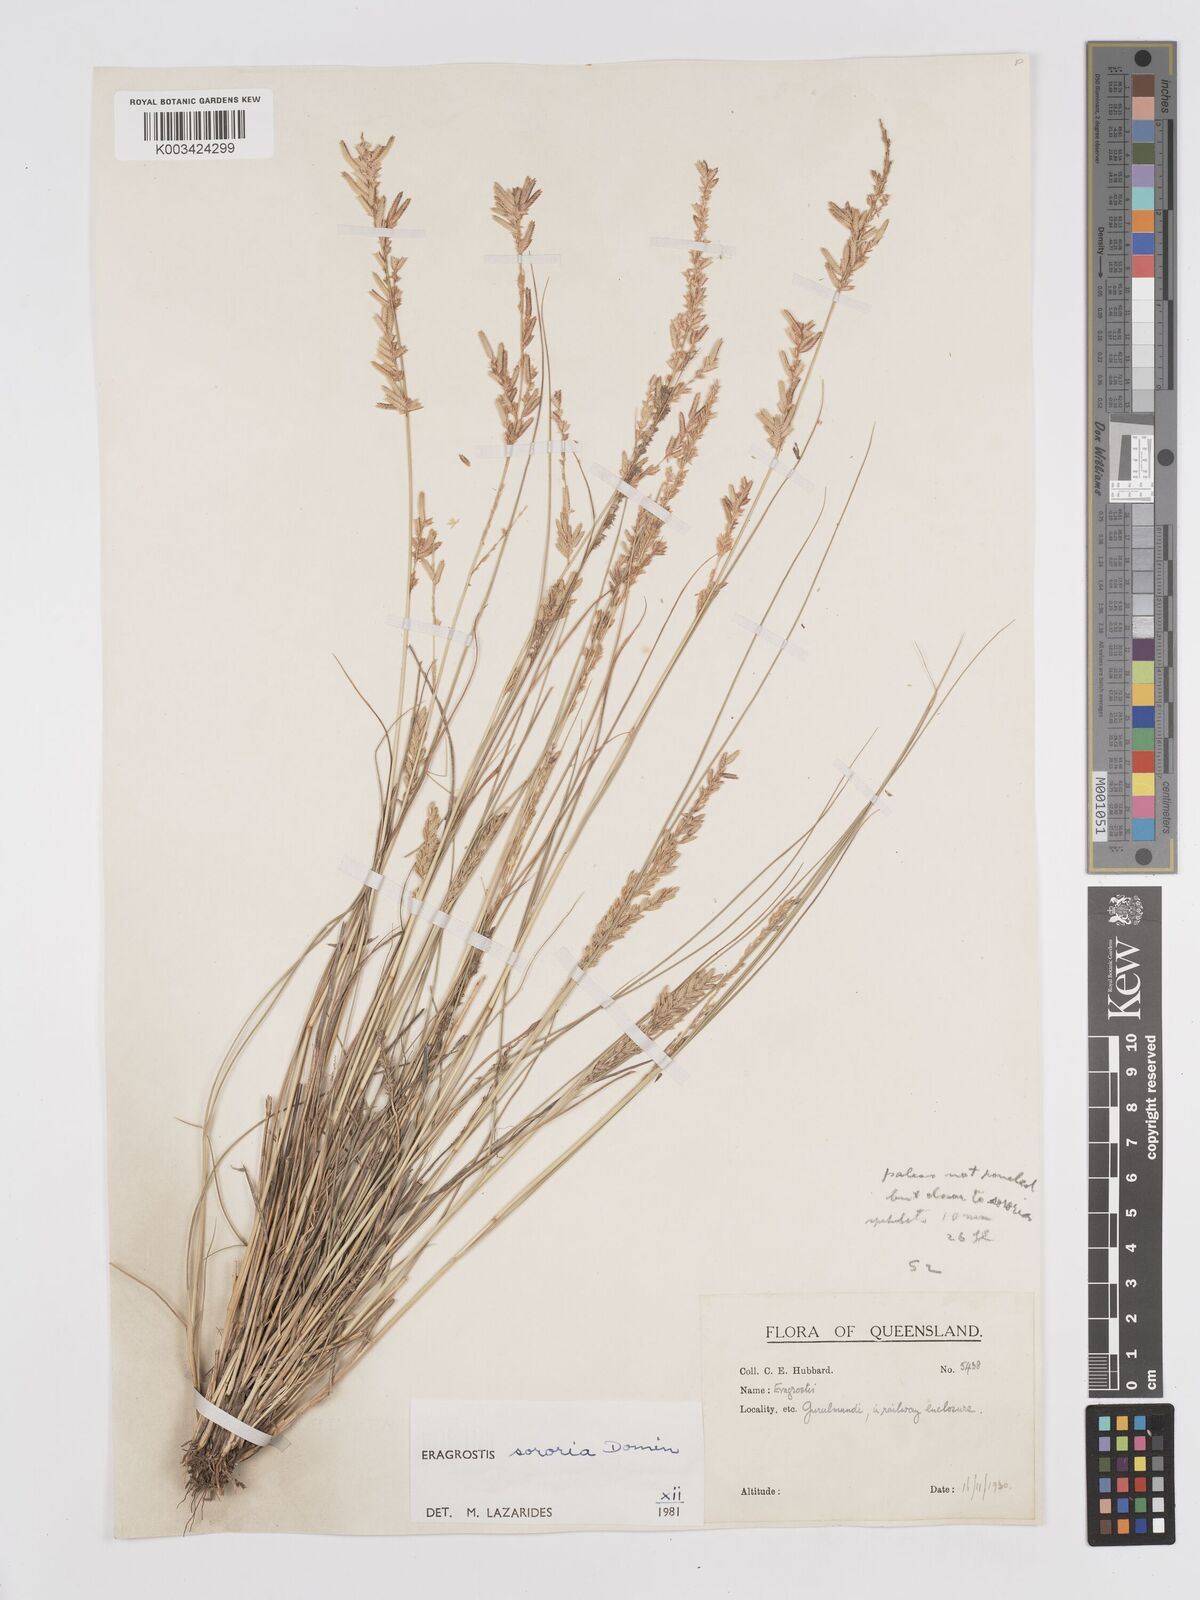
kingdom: Plantae
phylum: Tracheophyta
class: Liliopsida
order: Poales
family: Poaceae
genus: Eragrostis
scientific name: Eragrostis sororia
